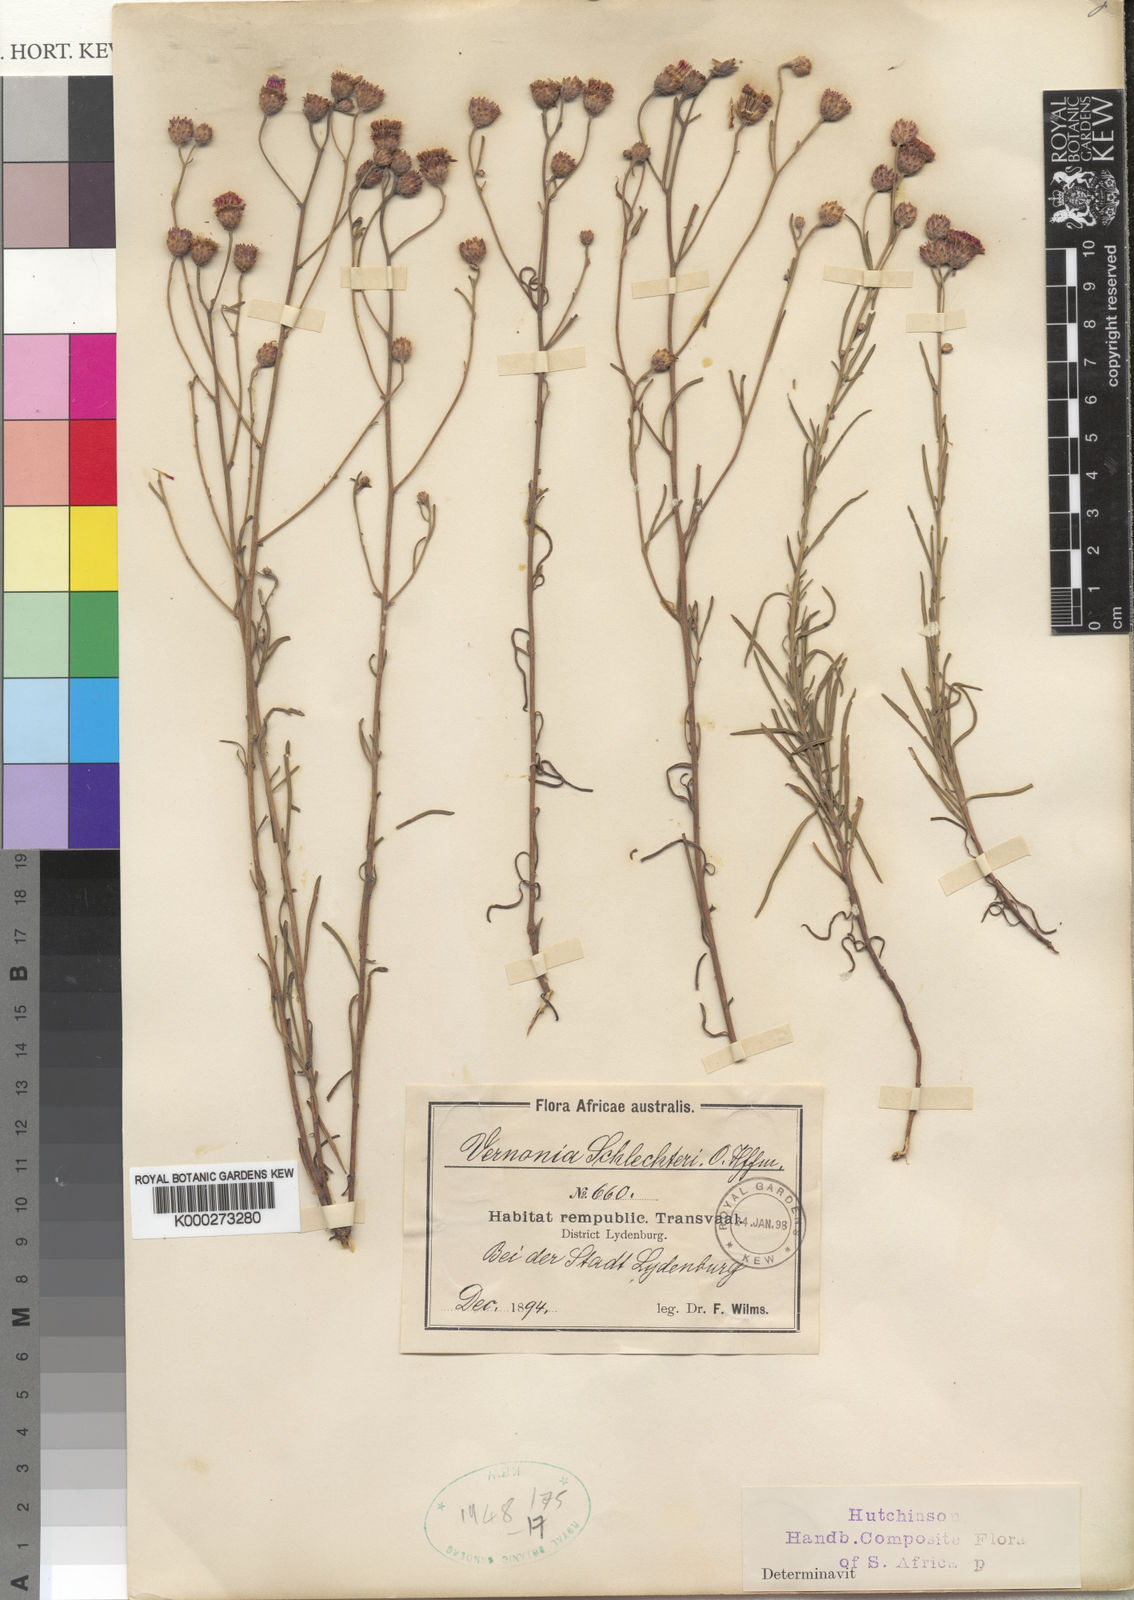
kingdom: Plantae
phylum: Tracheophyta
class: Magnoliopsida
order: Asterales
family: Asteraceae
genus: Oocephala
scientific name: Oocephala centauroides
